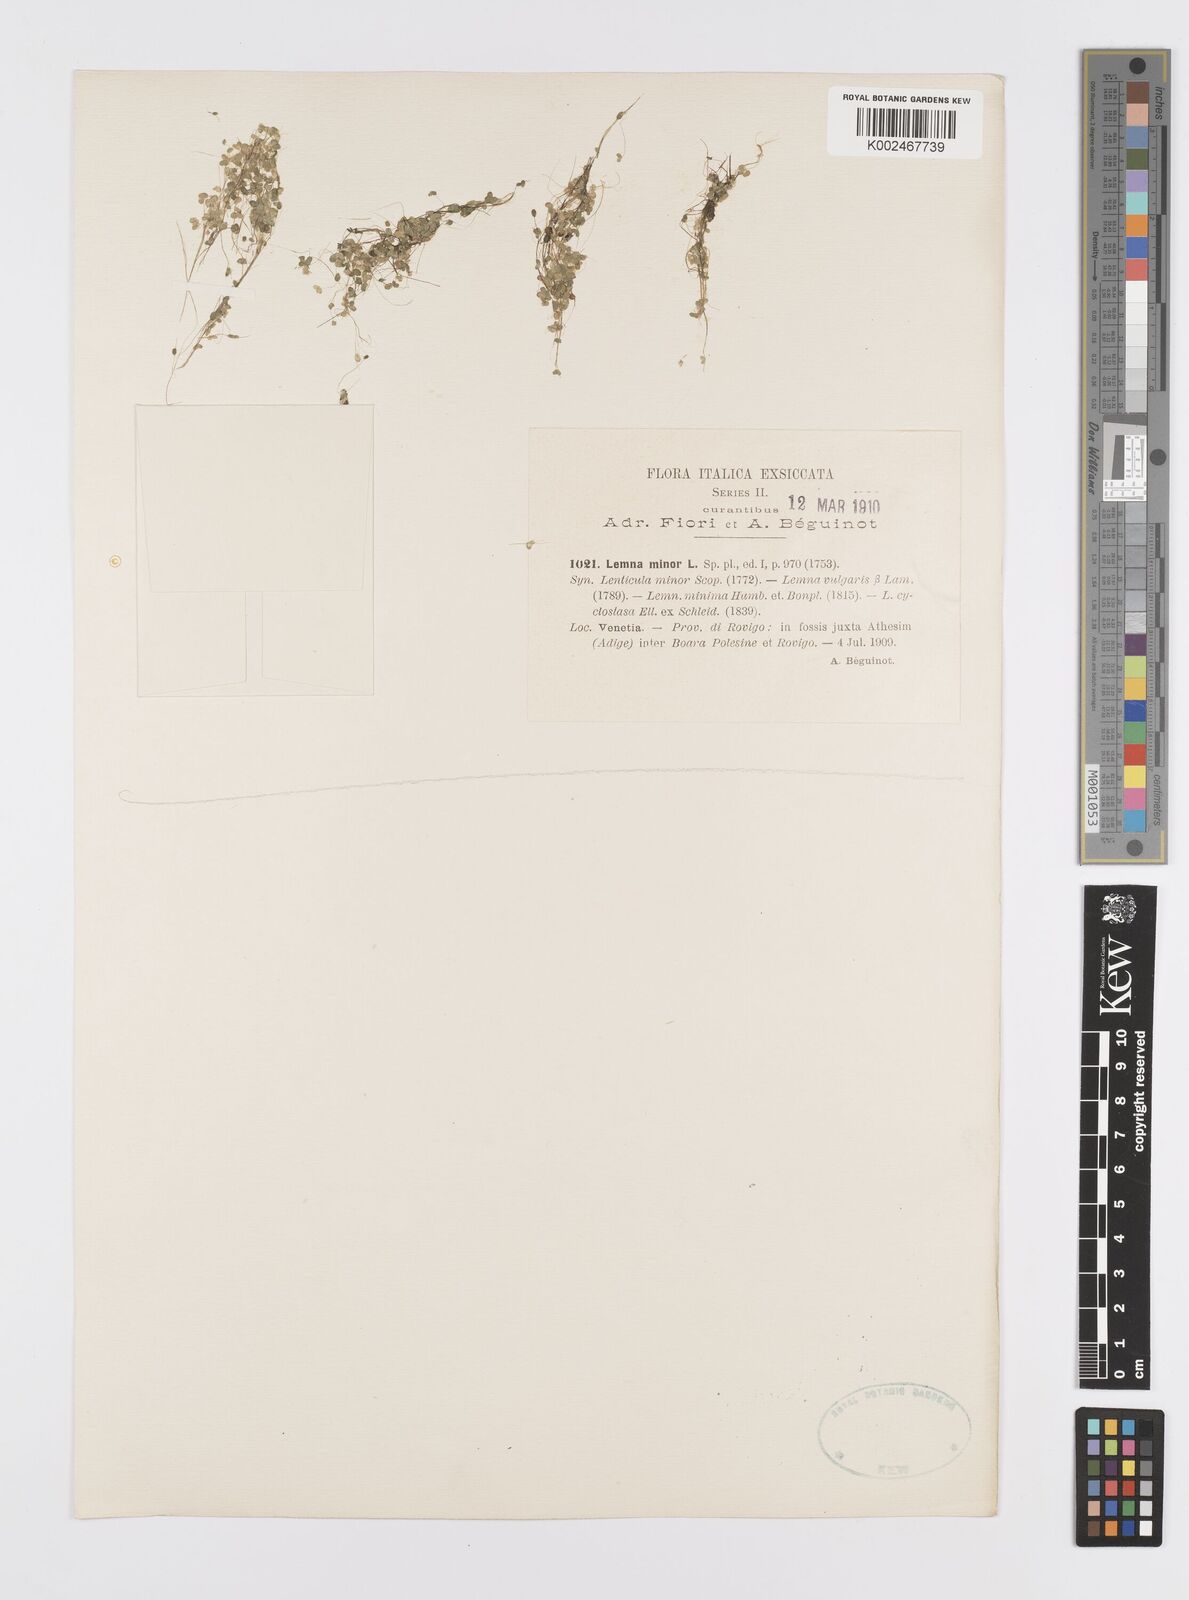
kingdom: Plantae
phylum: Tracheophyta
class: Liliopsida
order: Alismatales
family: Araceae
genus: Lemna
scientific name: Lemna minor
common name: Common duckweed
